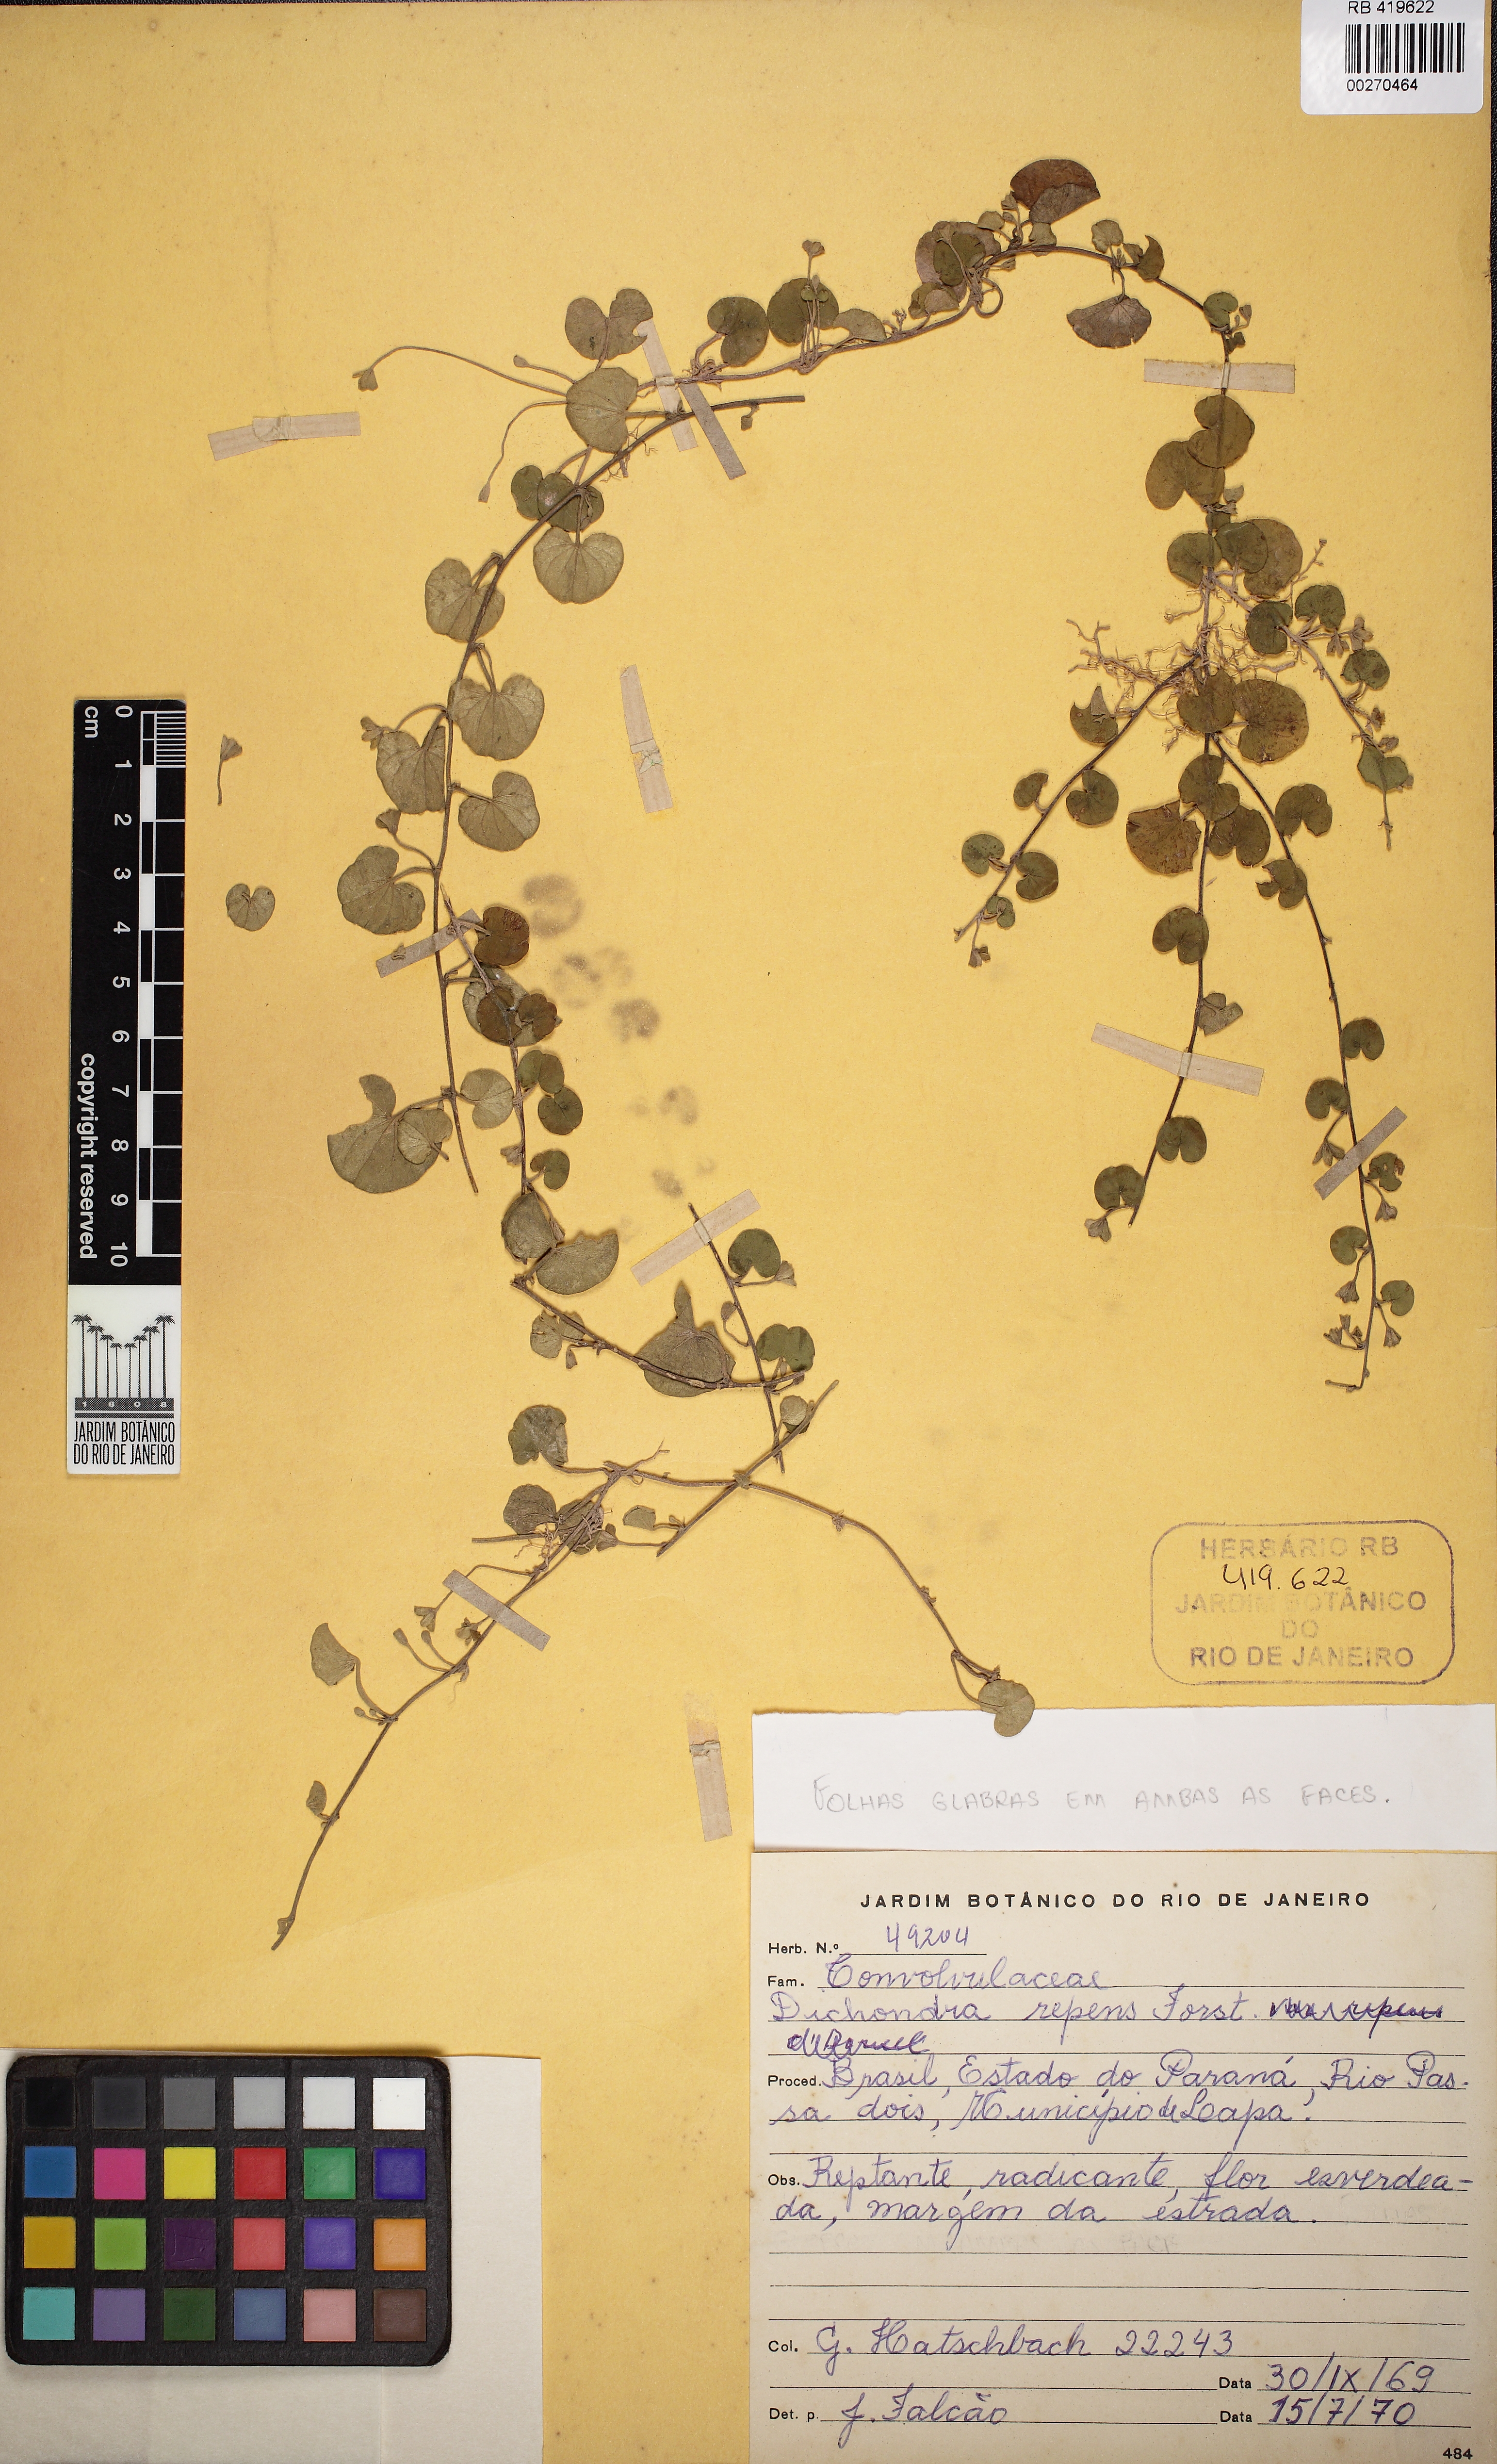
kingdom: Plantae
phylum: Tracheophyta
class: Magnoliopsida
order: Solanales
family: Convolvulaceae
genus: Dichondra
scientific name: Dichondra sericea
